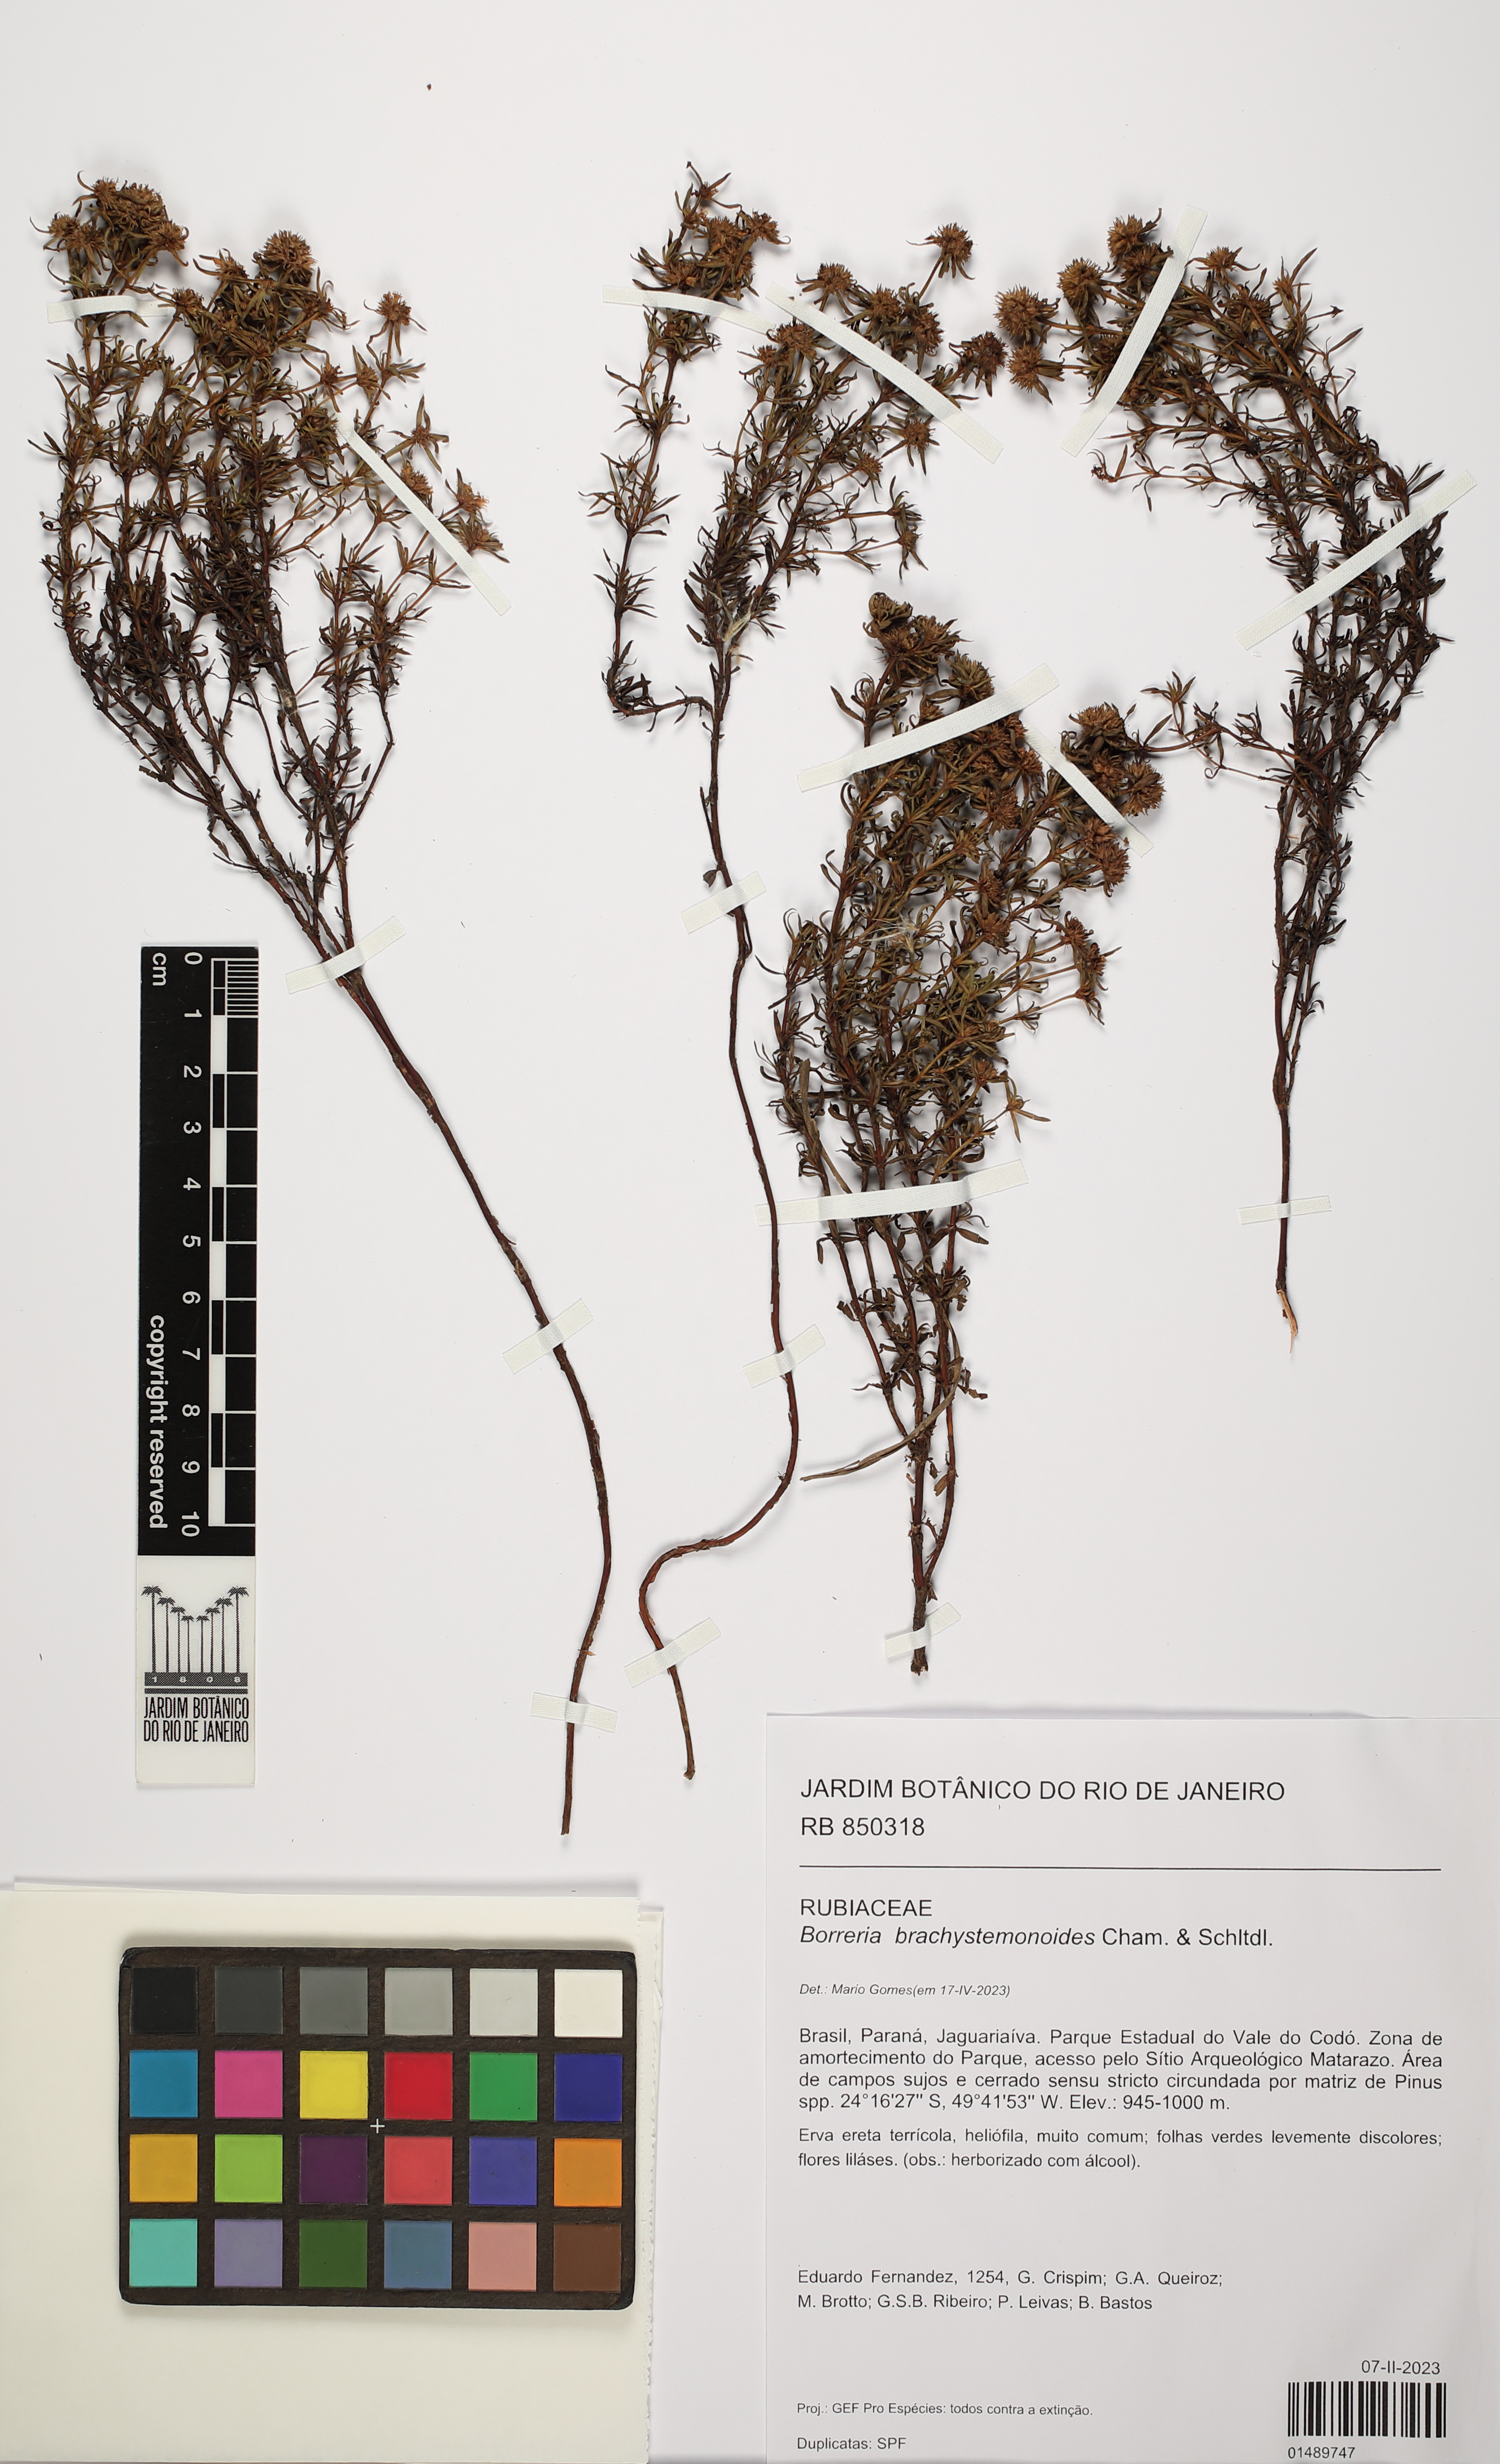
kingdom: Plantae
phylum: Tracheophyta
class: Magnoliopsida
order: Gentianales
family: Rubiaceae
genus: Spermacoce
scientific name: Spermacoce brachystemonoides
